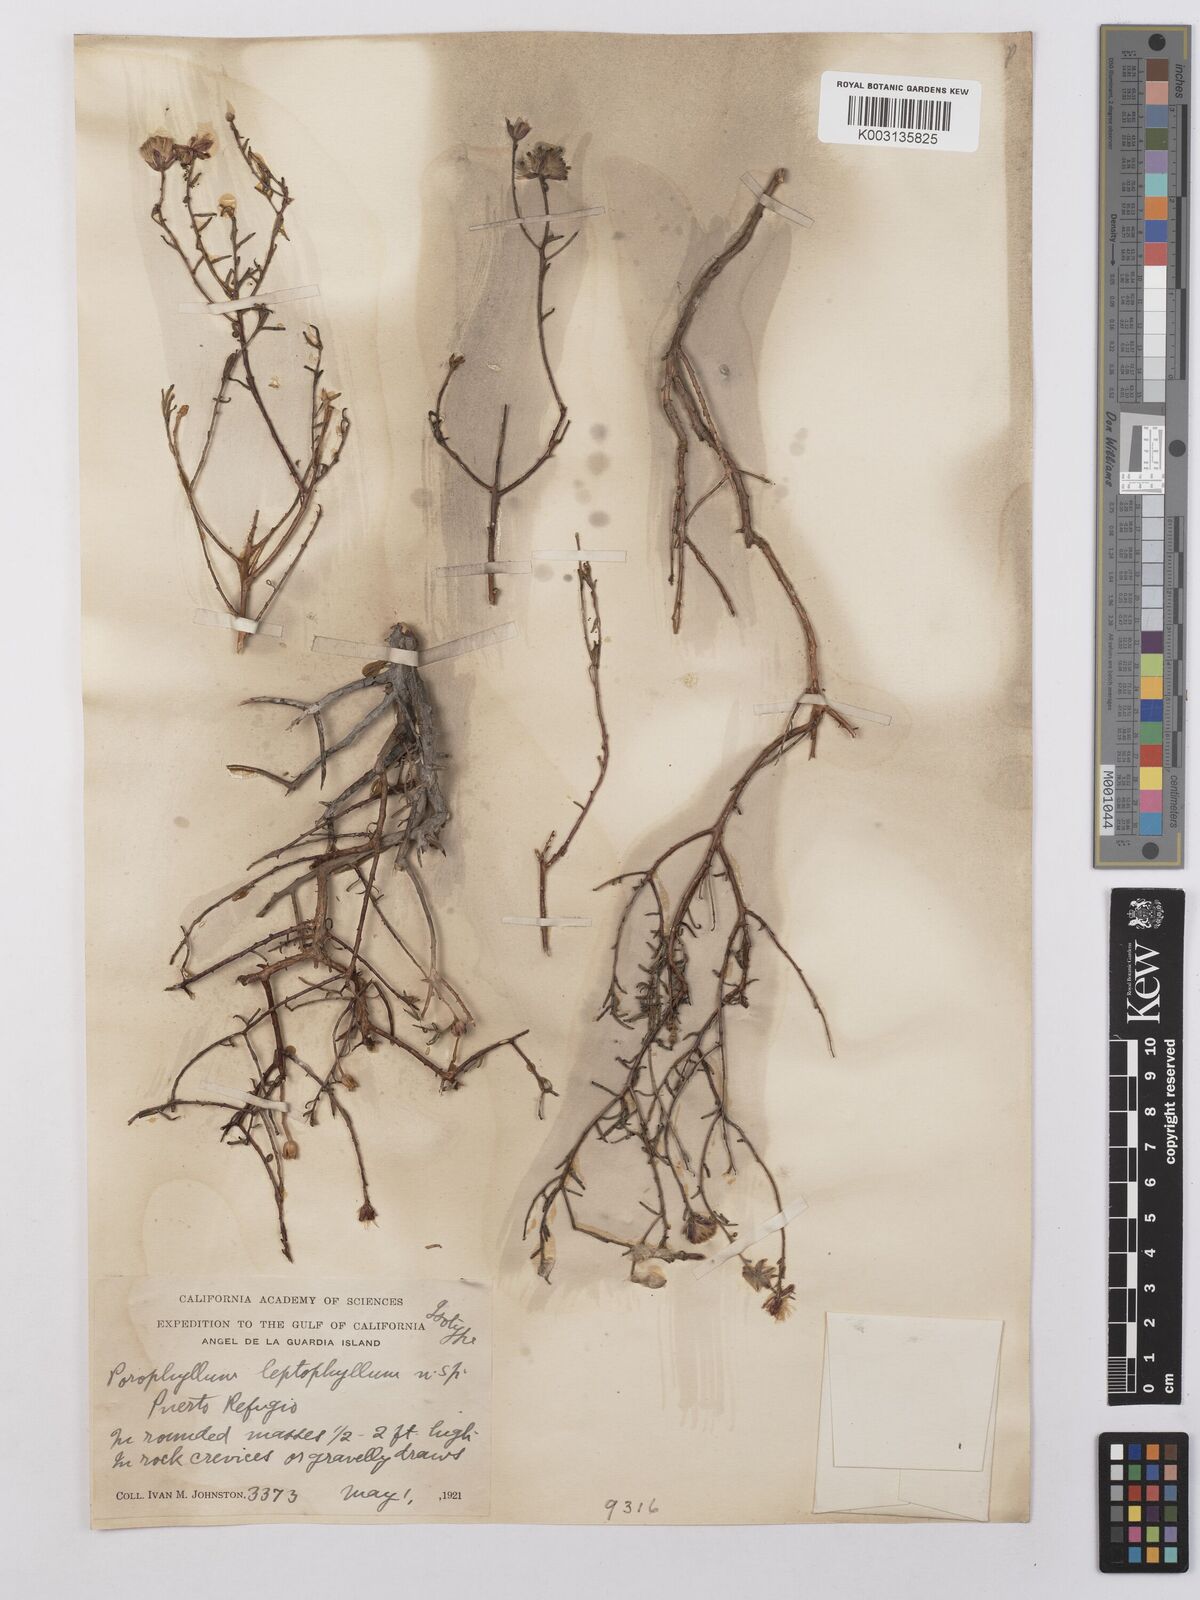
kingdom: Plantae
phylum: Tracheophyta
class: Magnoliopsida
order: Asterales
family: Asteraceae
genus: Bajacalia
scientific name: Bajacalia crassifolia
